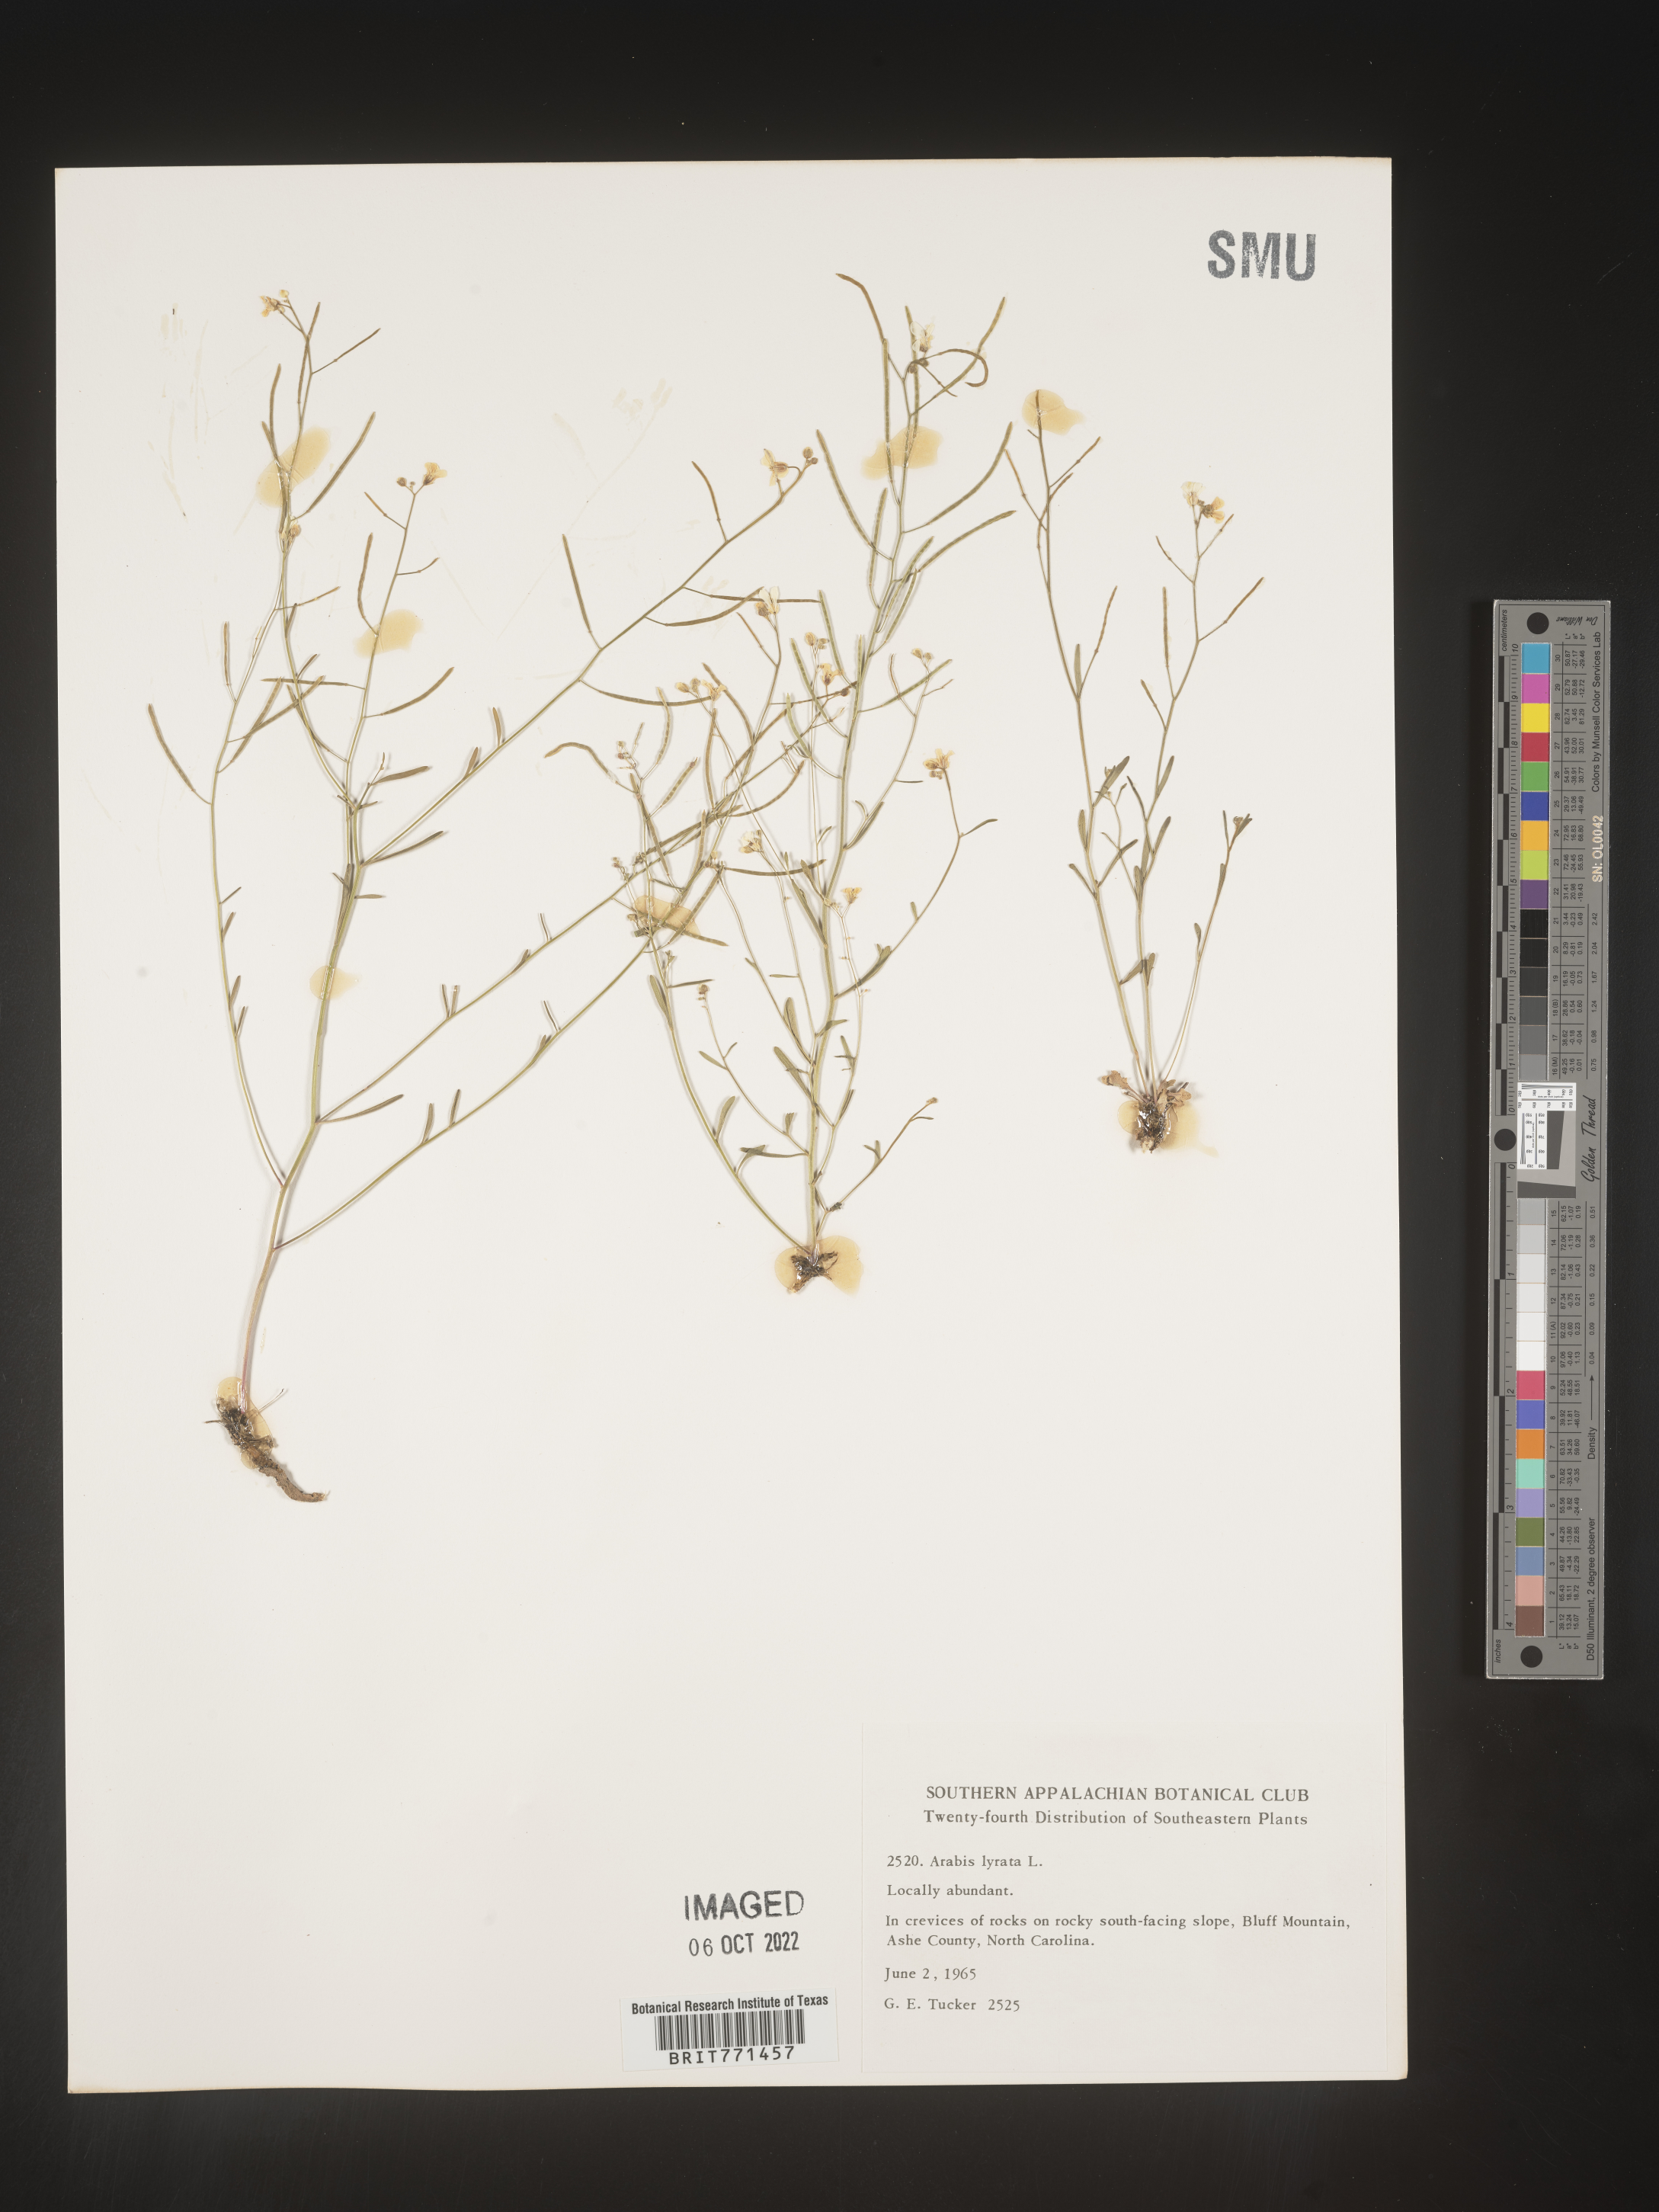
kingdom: Plantae
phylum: Tracheophyta
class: Magnoliopsida
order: Brassicales
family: Brassicaceae
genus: Arabidopsis
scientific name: Arabidopsis lyrata
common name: Lyrate rockcress
